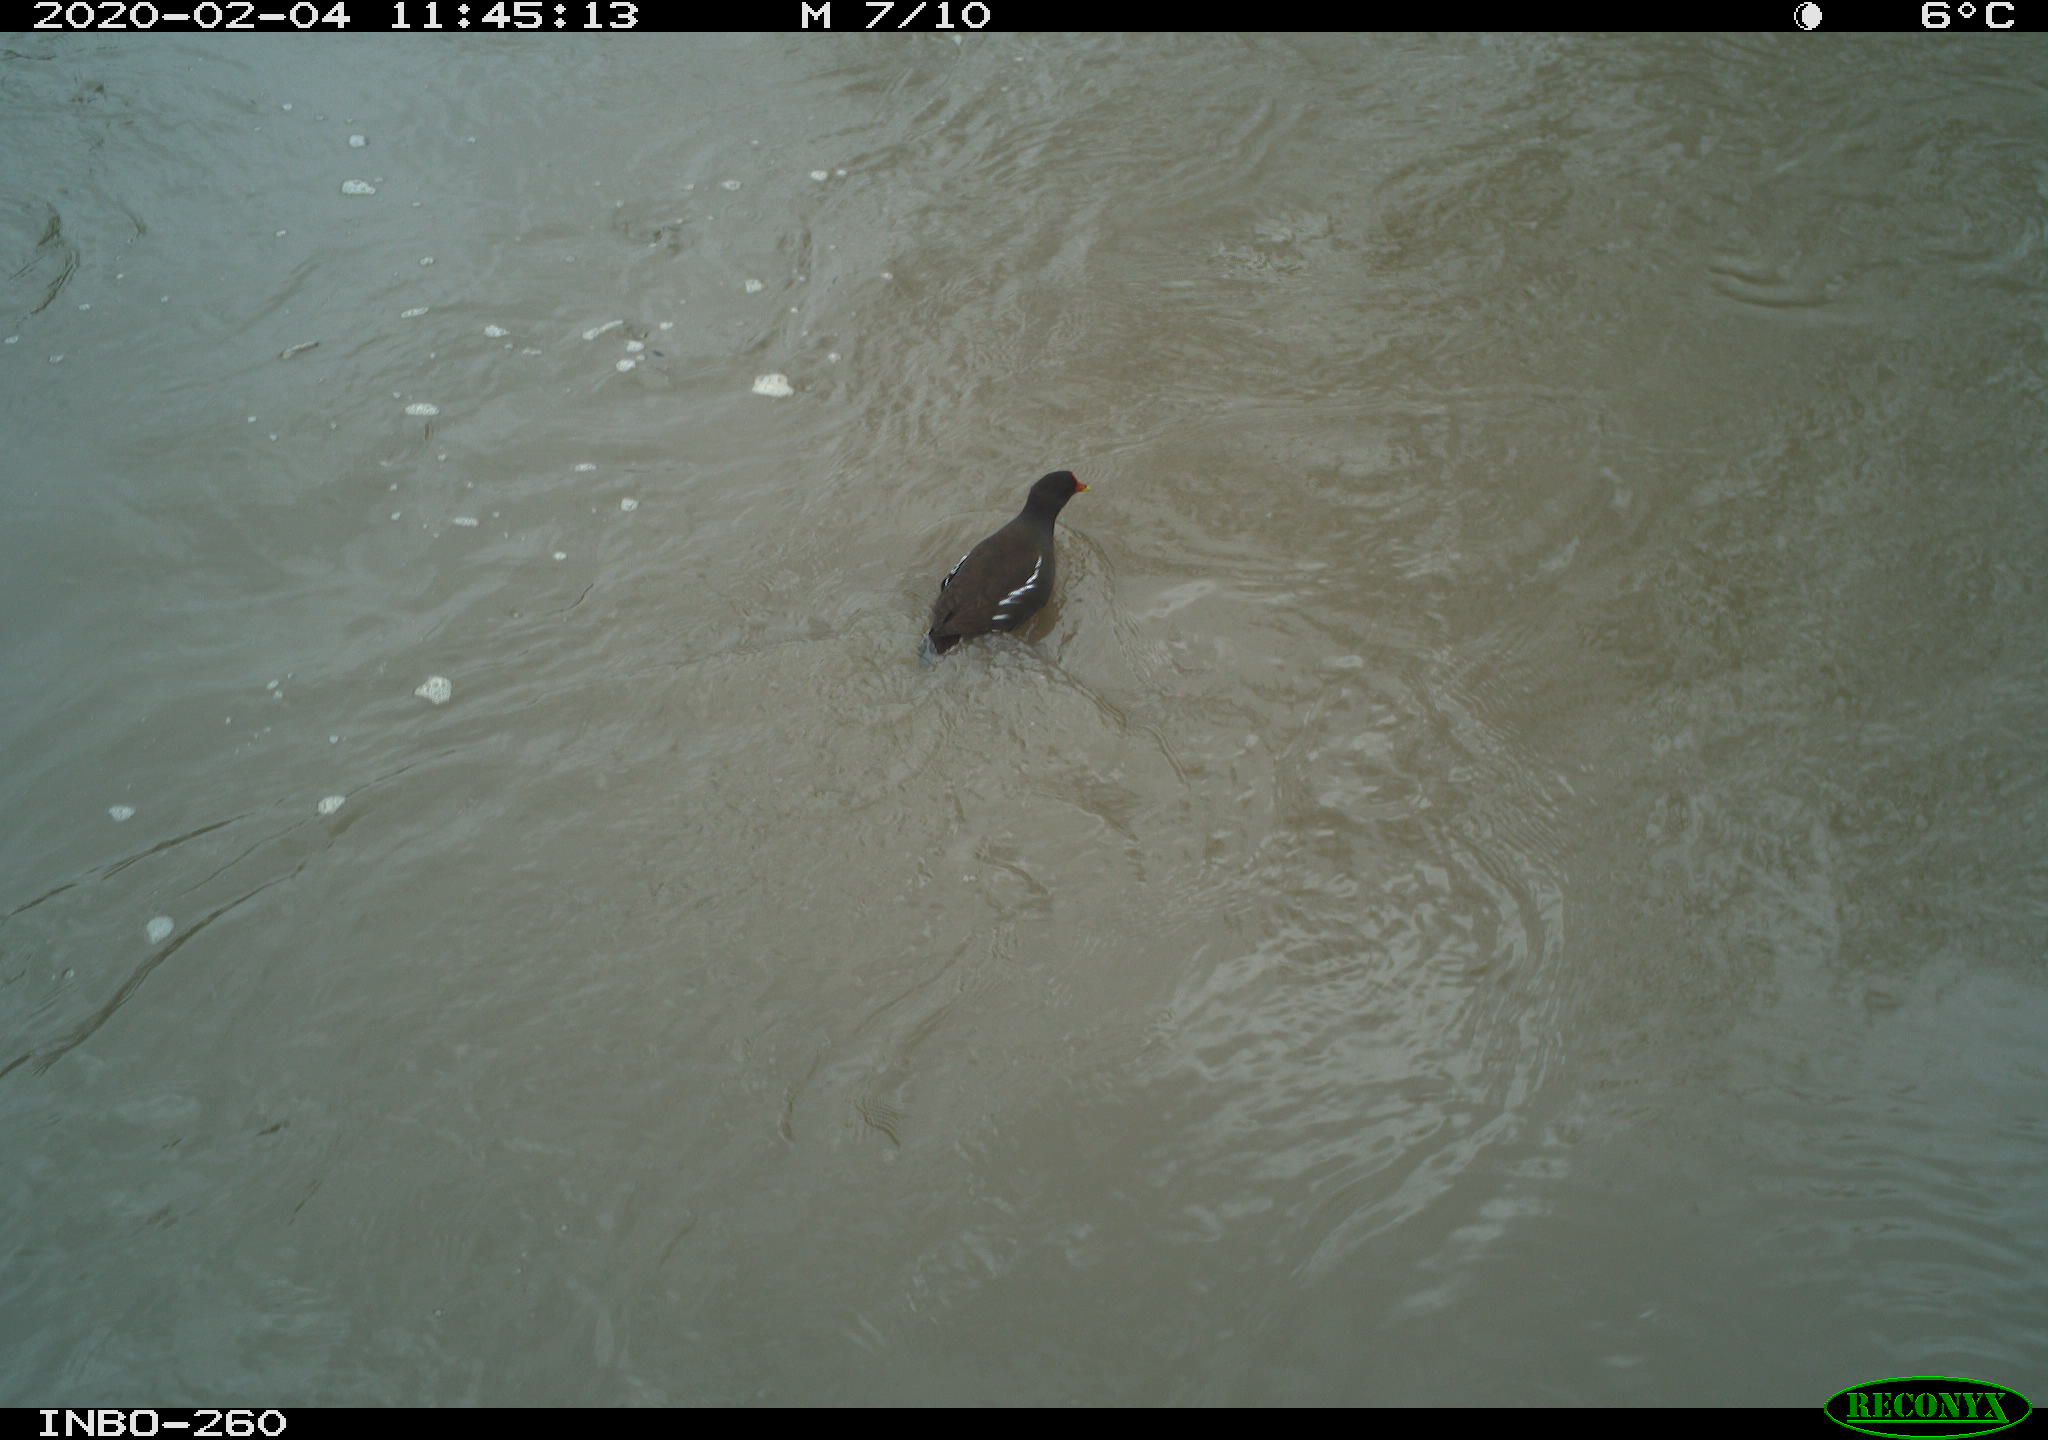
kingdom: Animalia
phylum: Chordata
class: Aves
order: Gruiformes
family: Rallidae
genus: Gallinula
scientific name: Gallinula chloropus
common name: Common moorhen
